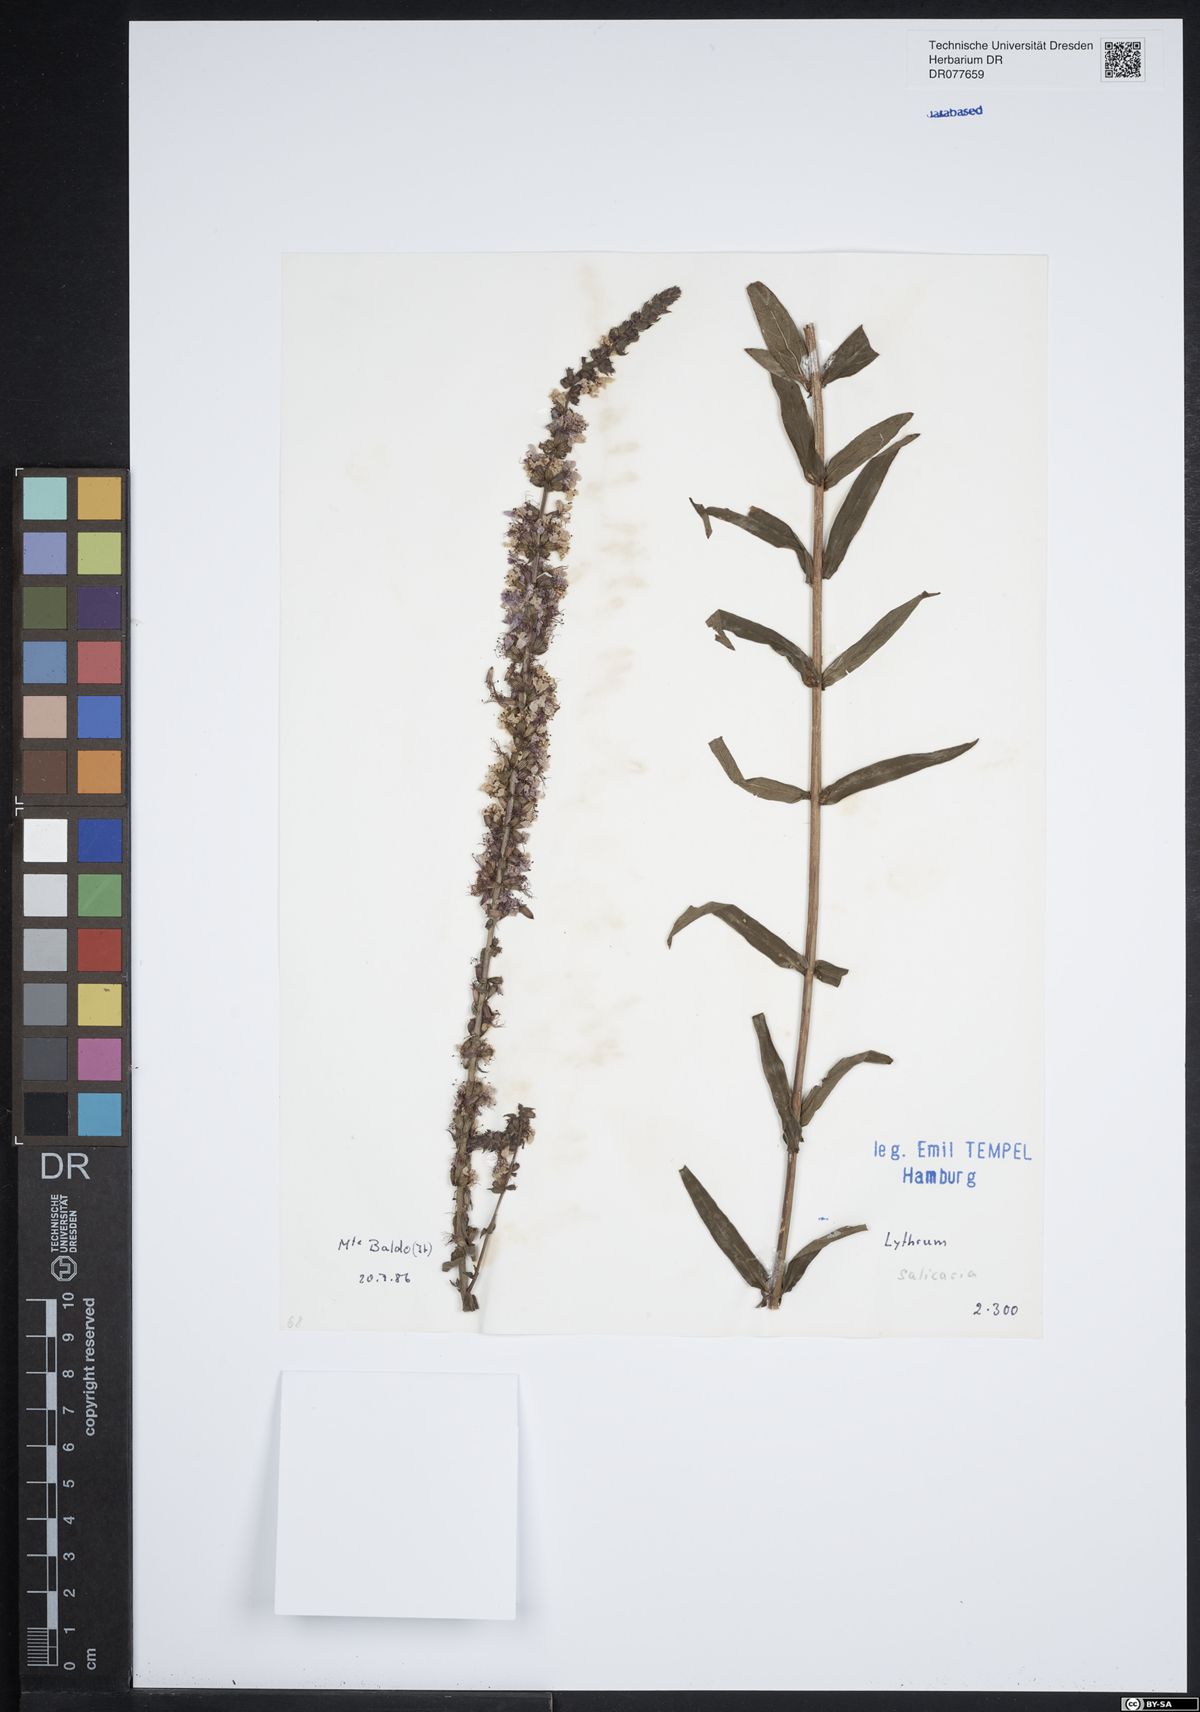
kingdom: Plantae
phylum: Tracheophyta
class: Magnoliopsida
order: Myrtales
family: Lythraceae
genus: Lythrum
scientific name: Lythrum salicaria
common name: Purple loosestrife
